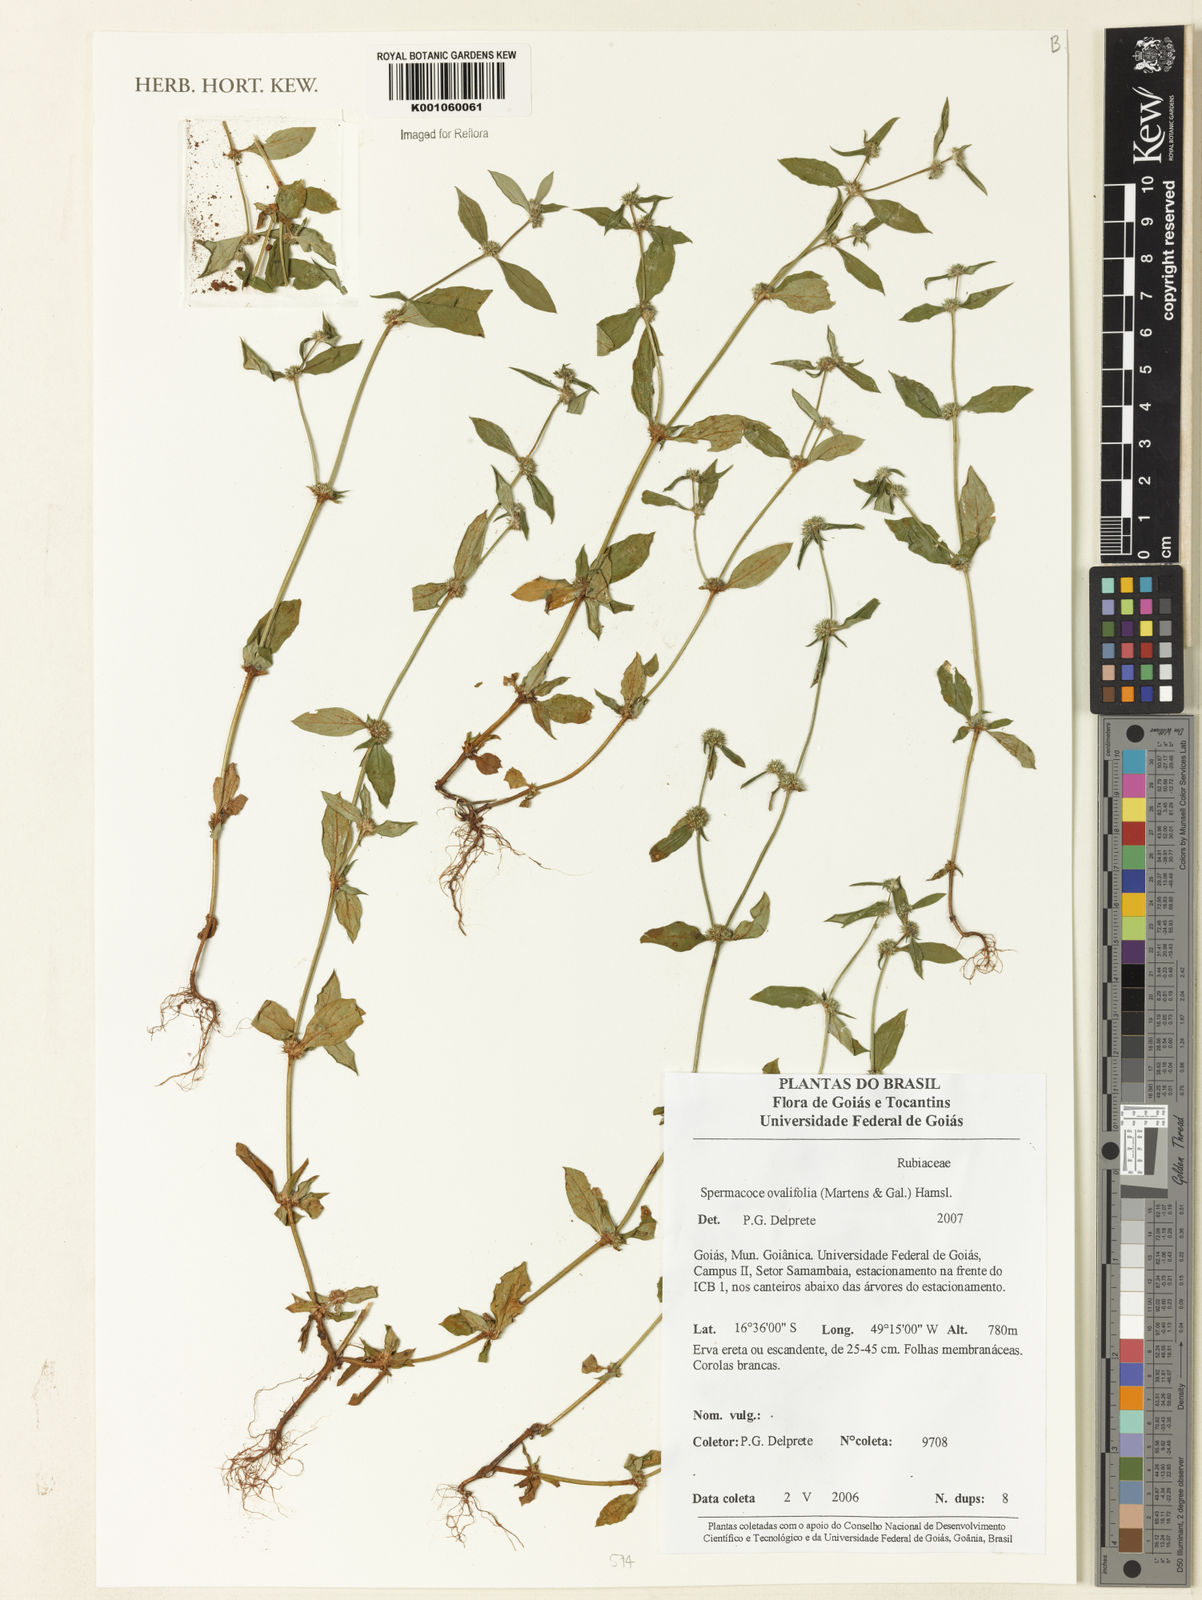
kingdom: Plantae
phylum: Tracheophyta
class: Magnoliopsida
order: Gentianales
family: Rubiaceae
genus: Spermacoce
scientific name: Spermacoce ovalifolia
